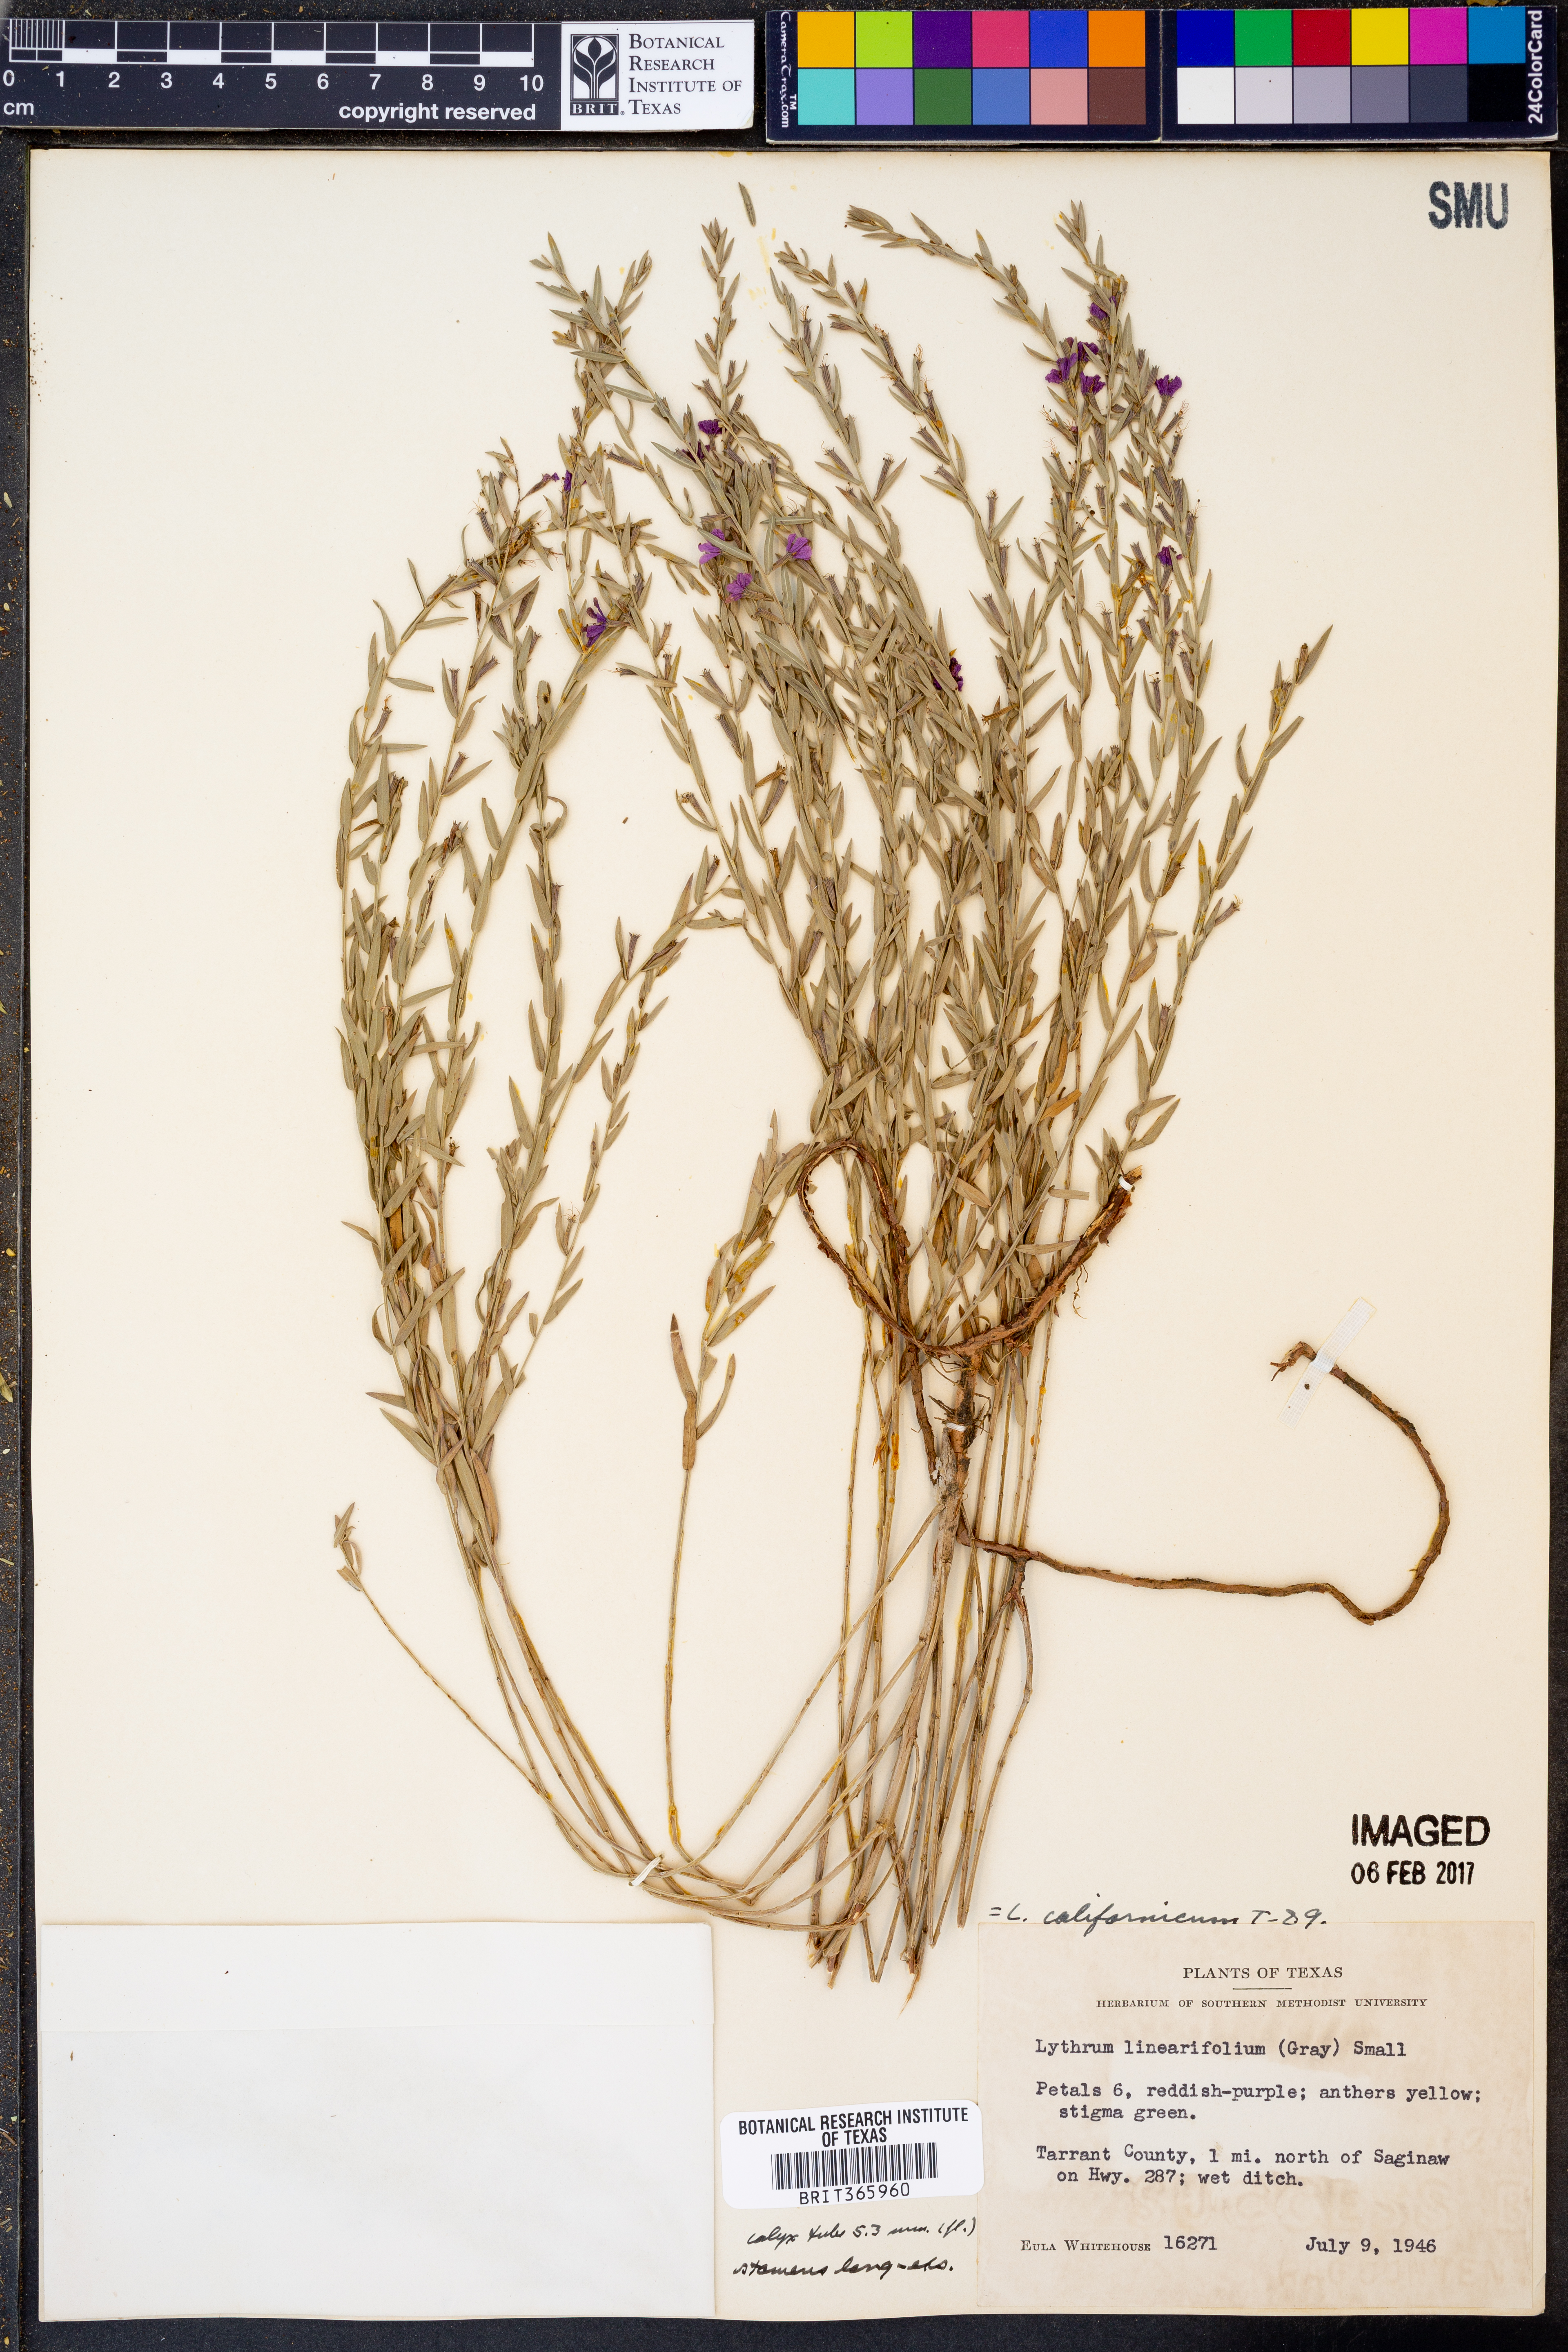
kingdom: Plantae
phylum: Tracheophyta
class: Magnoliopsida
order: Myrtales
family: Lythraceae
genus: Lythrum
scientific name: Lythrum californicum
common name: California loosestrife
